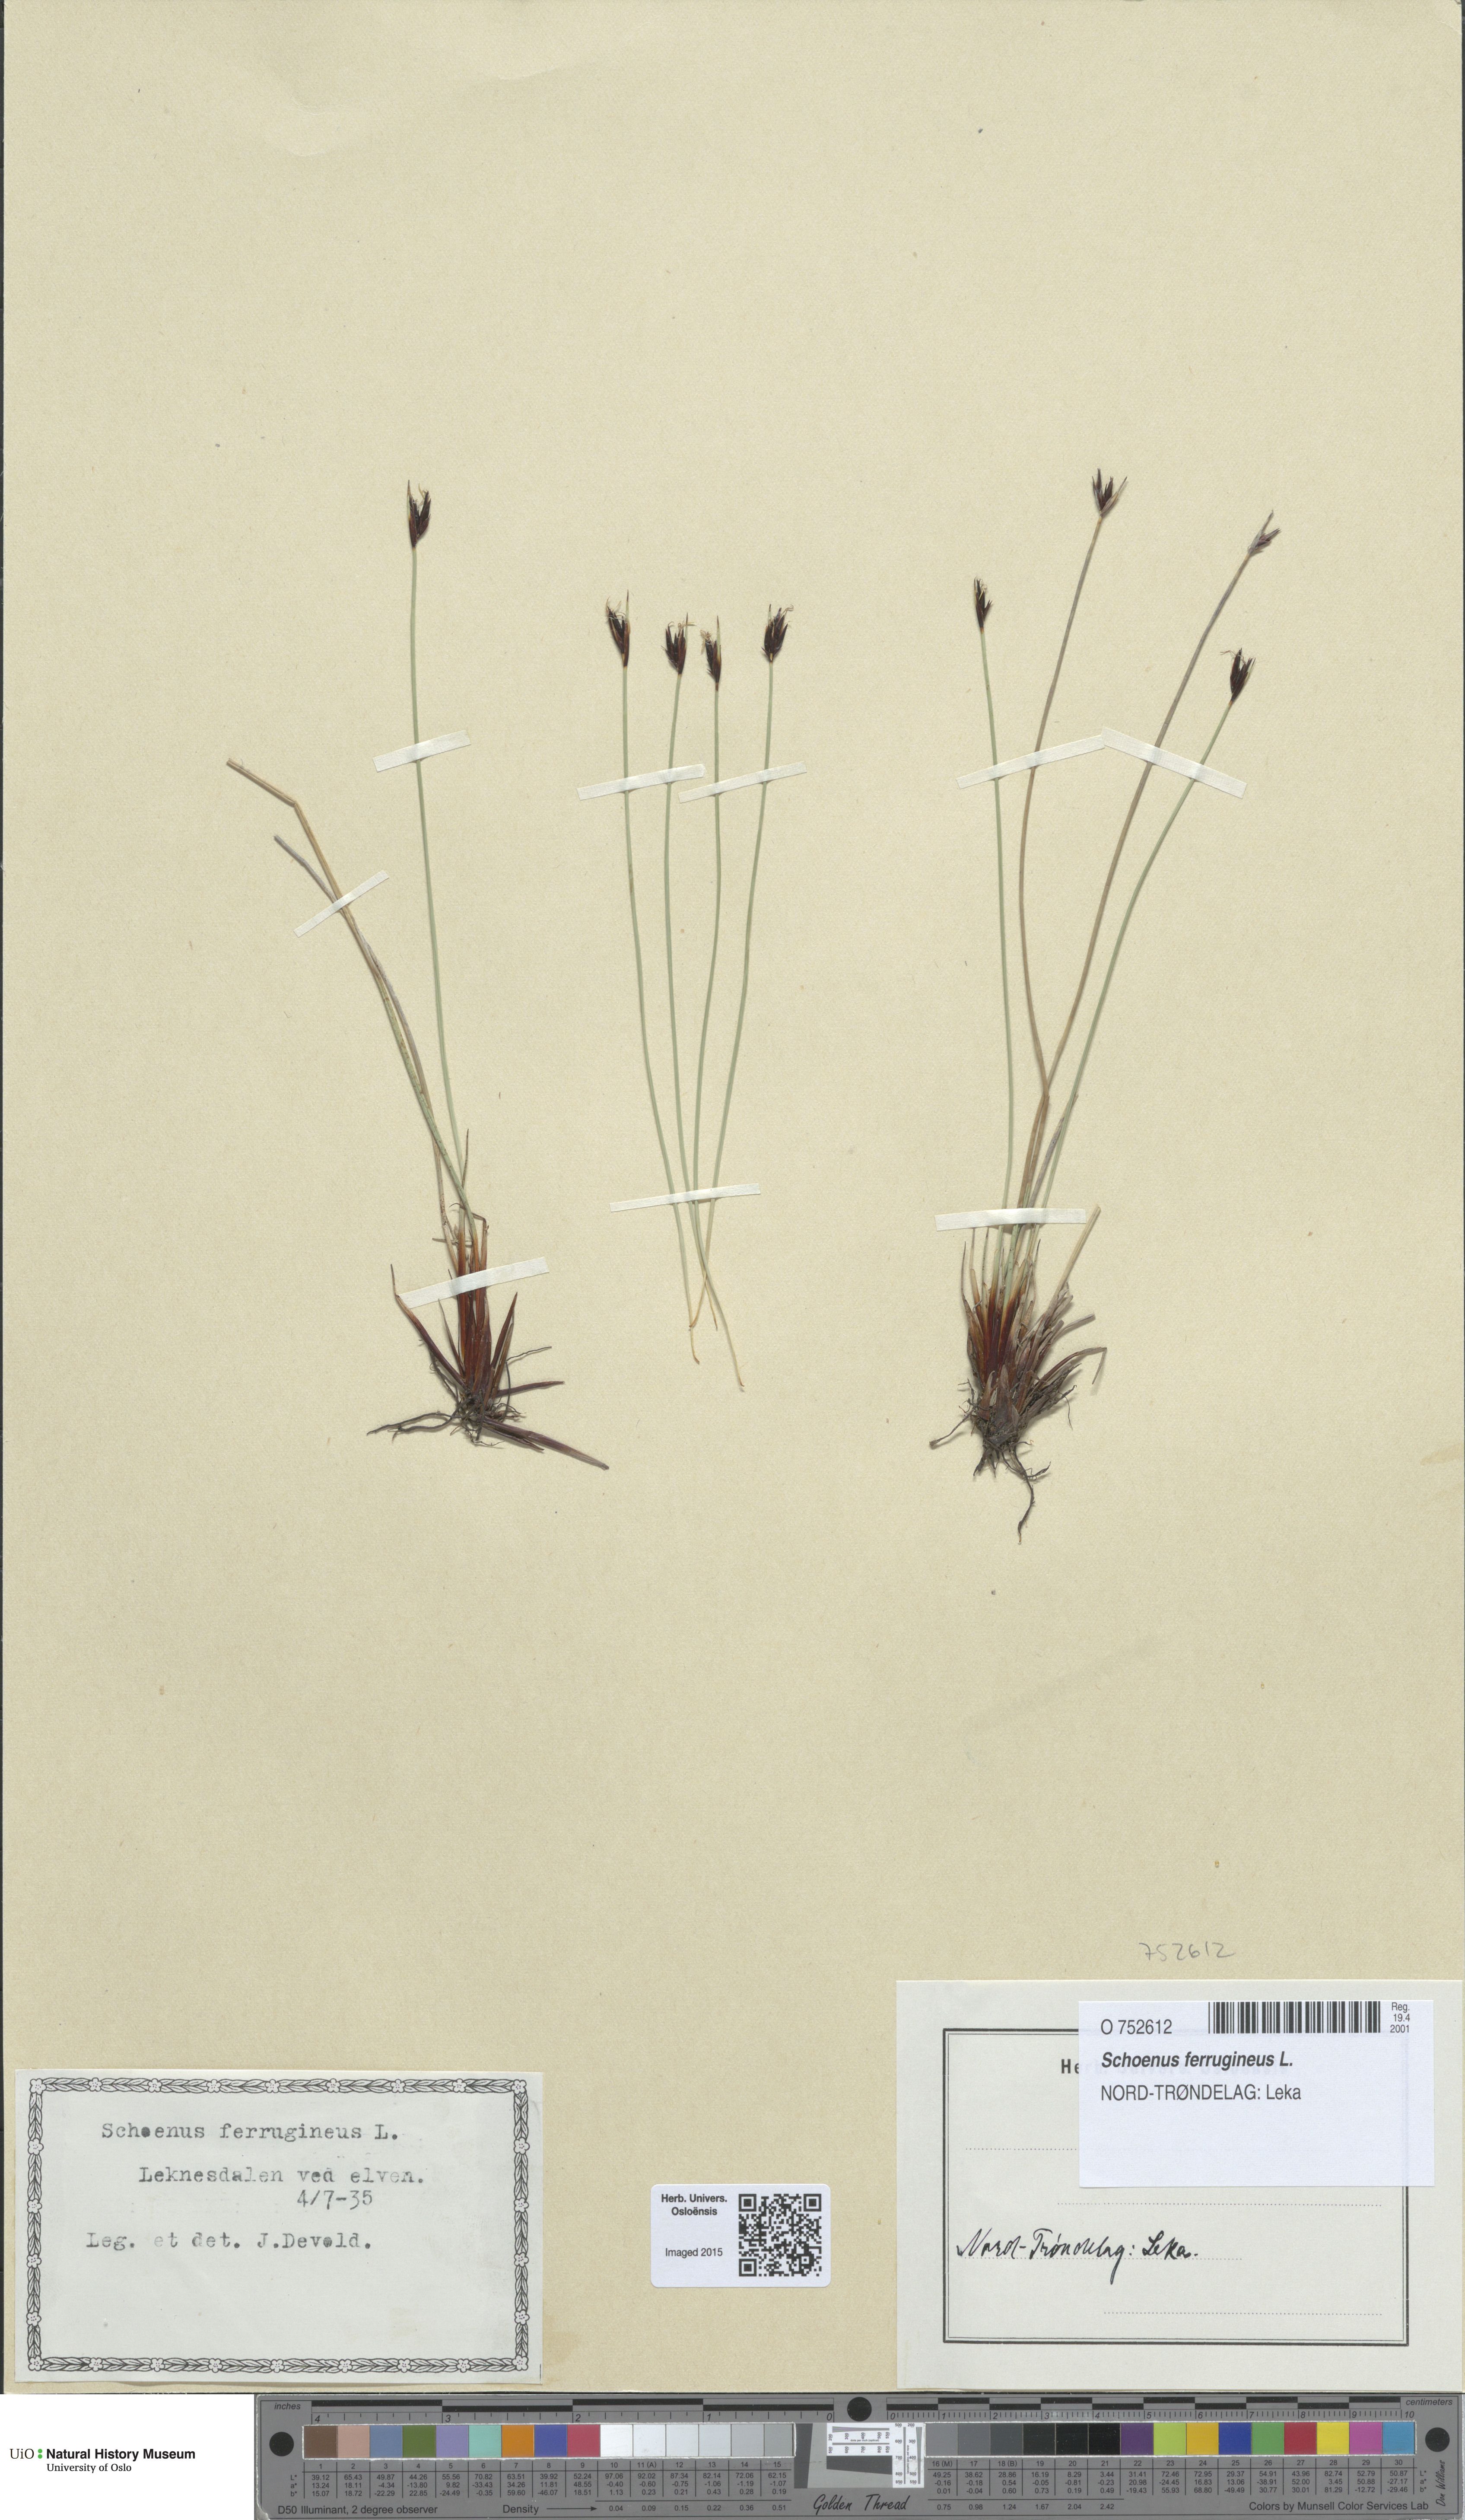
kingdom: Plantae
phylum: Tracheophyta
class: Liliopsida
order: Poales
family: Cyperaceae
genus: Schoenus
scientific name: Schoenus ferrugineus
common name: Brown bog-rush
